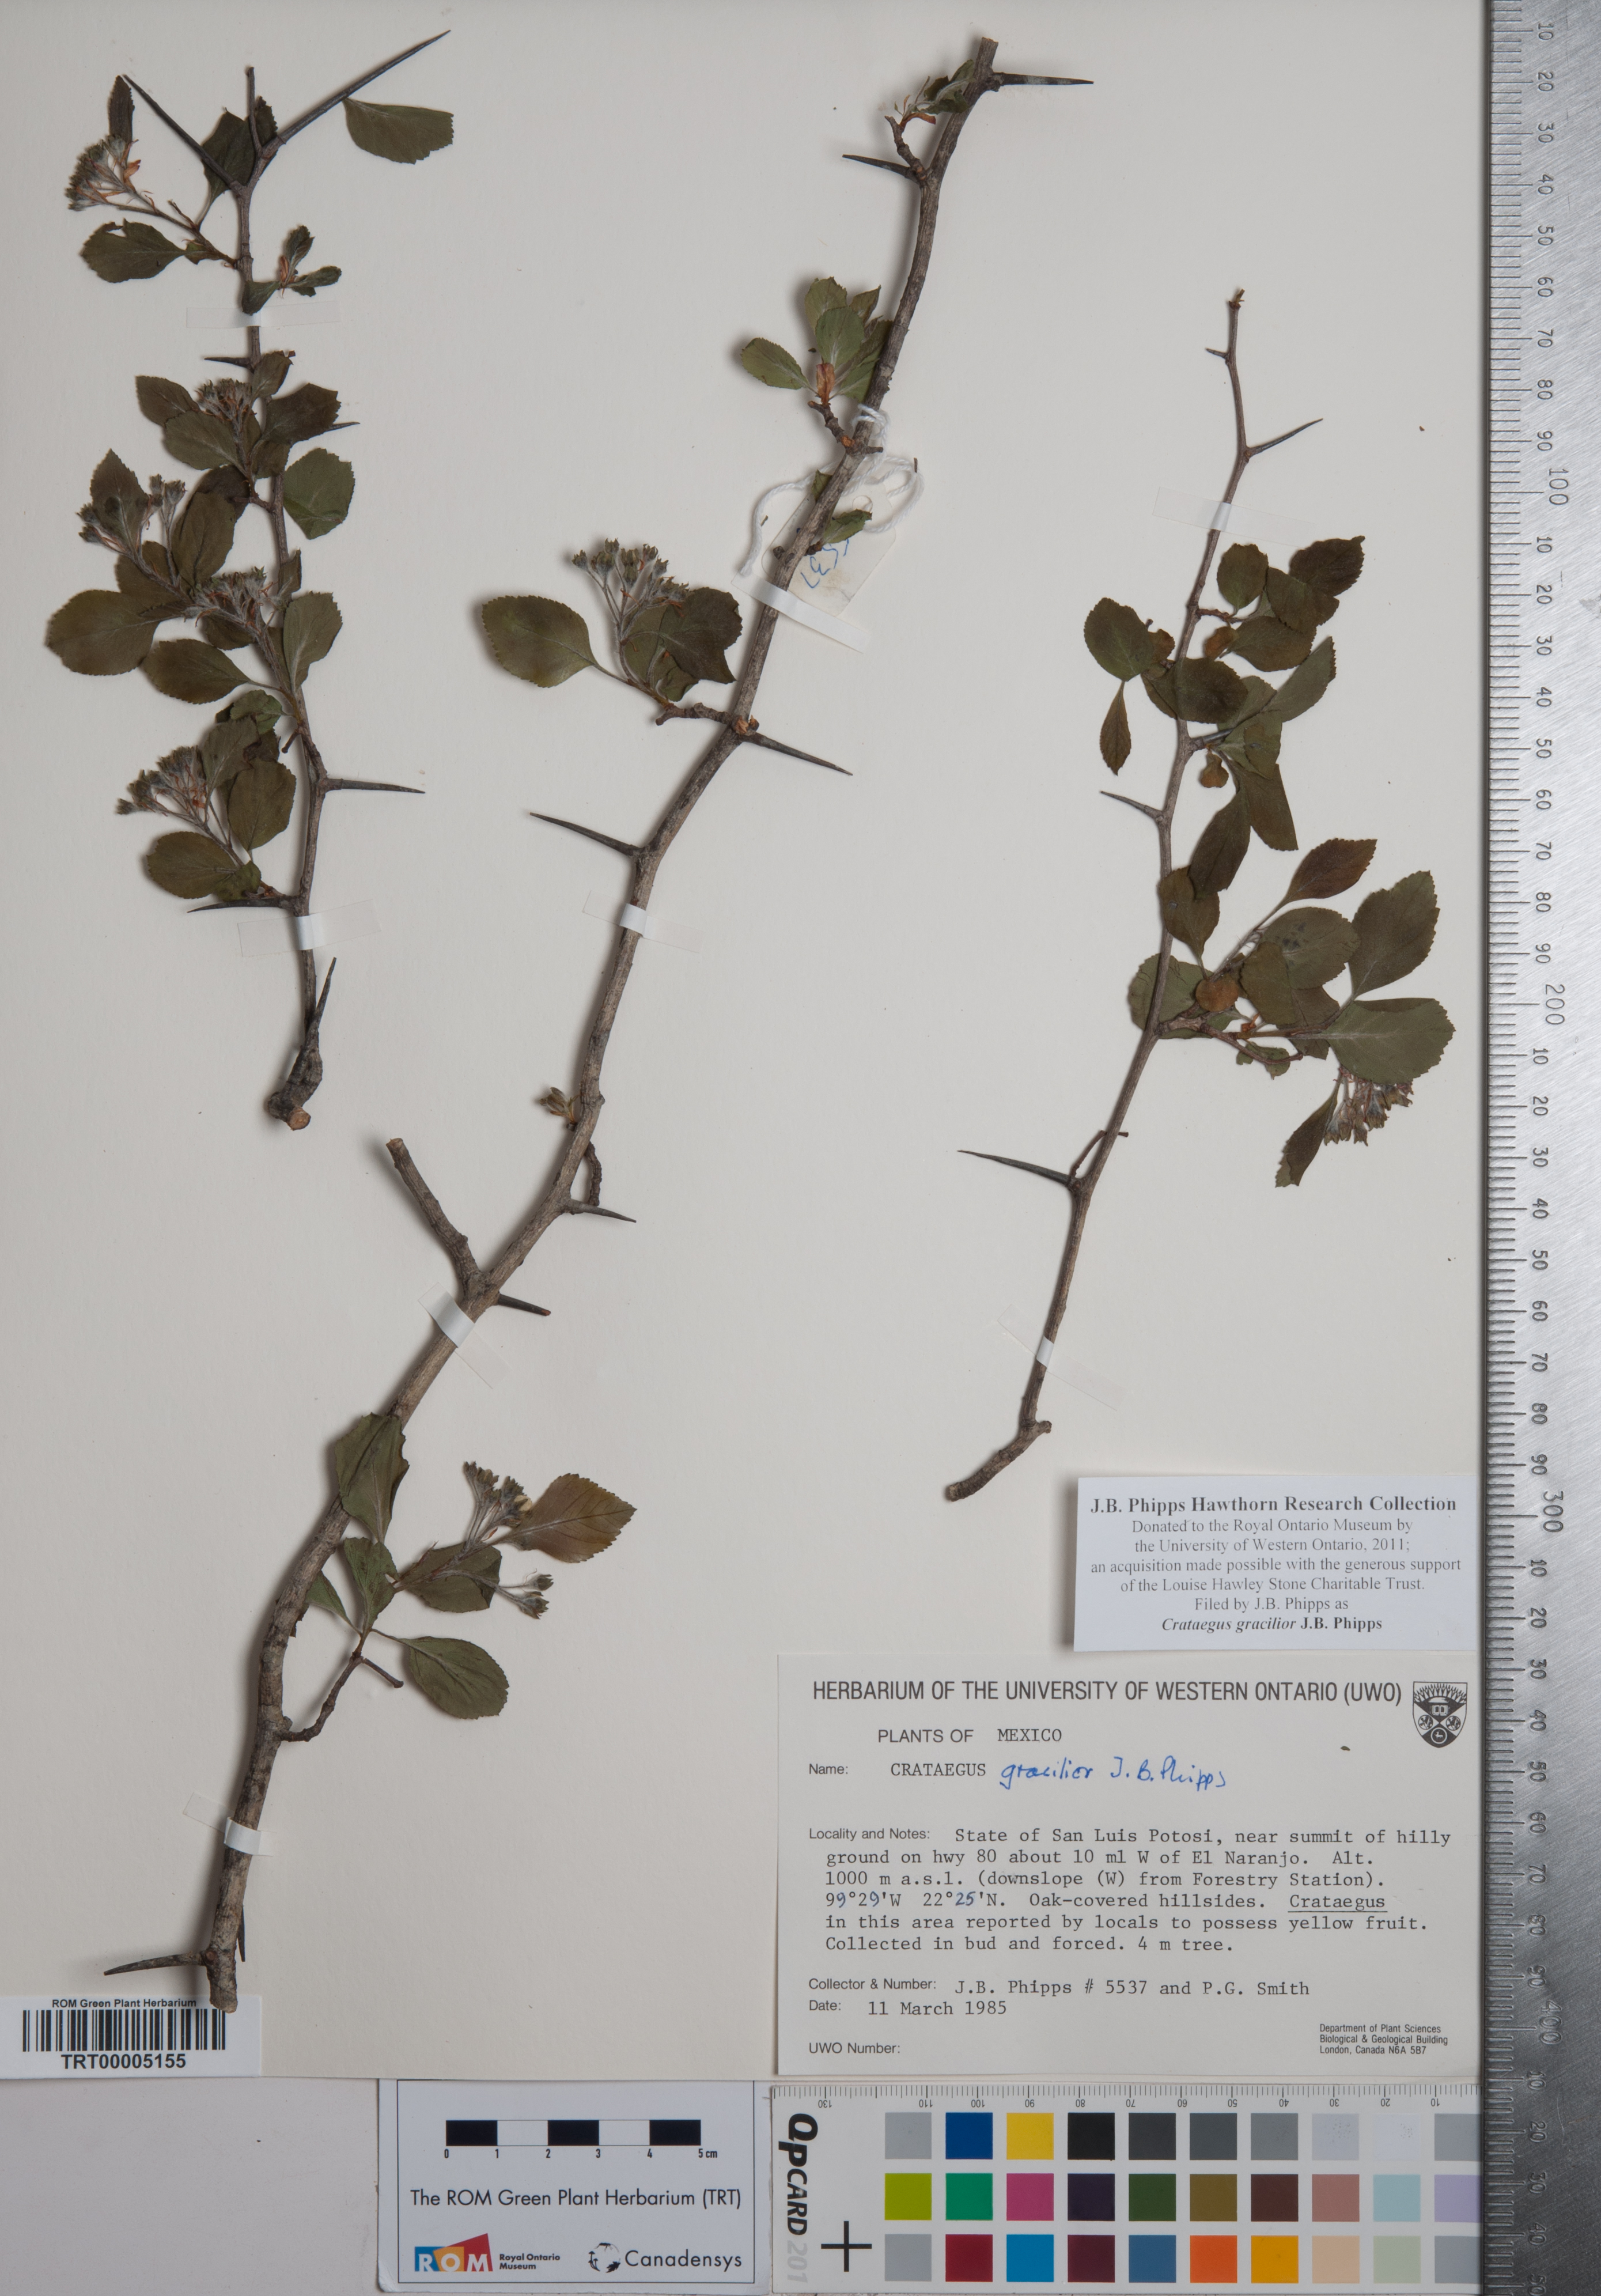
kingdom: Plantae
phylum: Tracheophyta
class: Magnoliopsida
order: Rosales
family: Rosaceae
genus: Crataegus
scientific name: Crataegus gracilior
